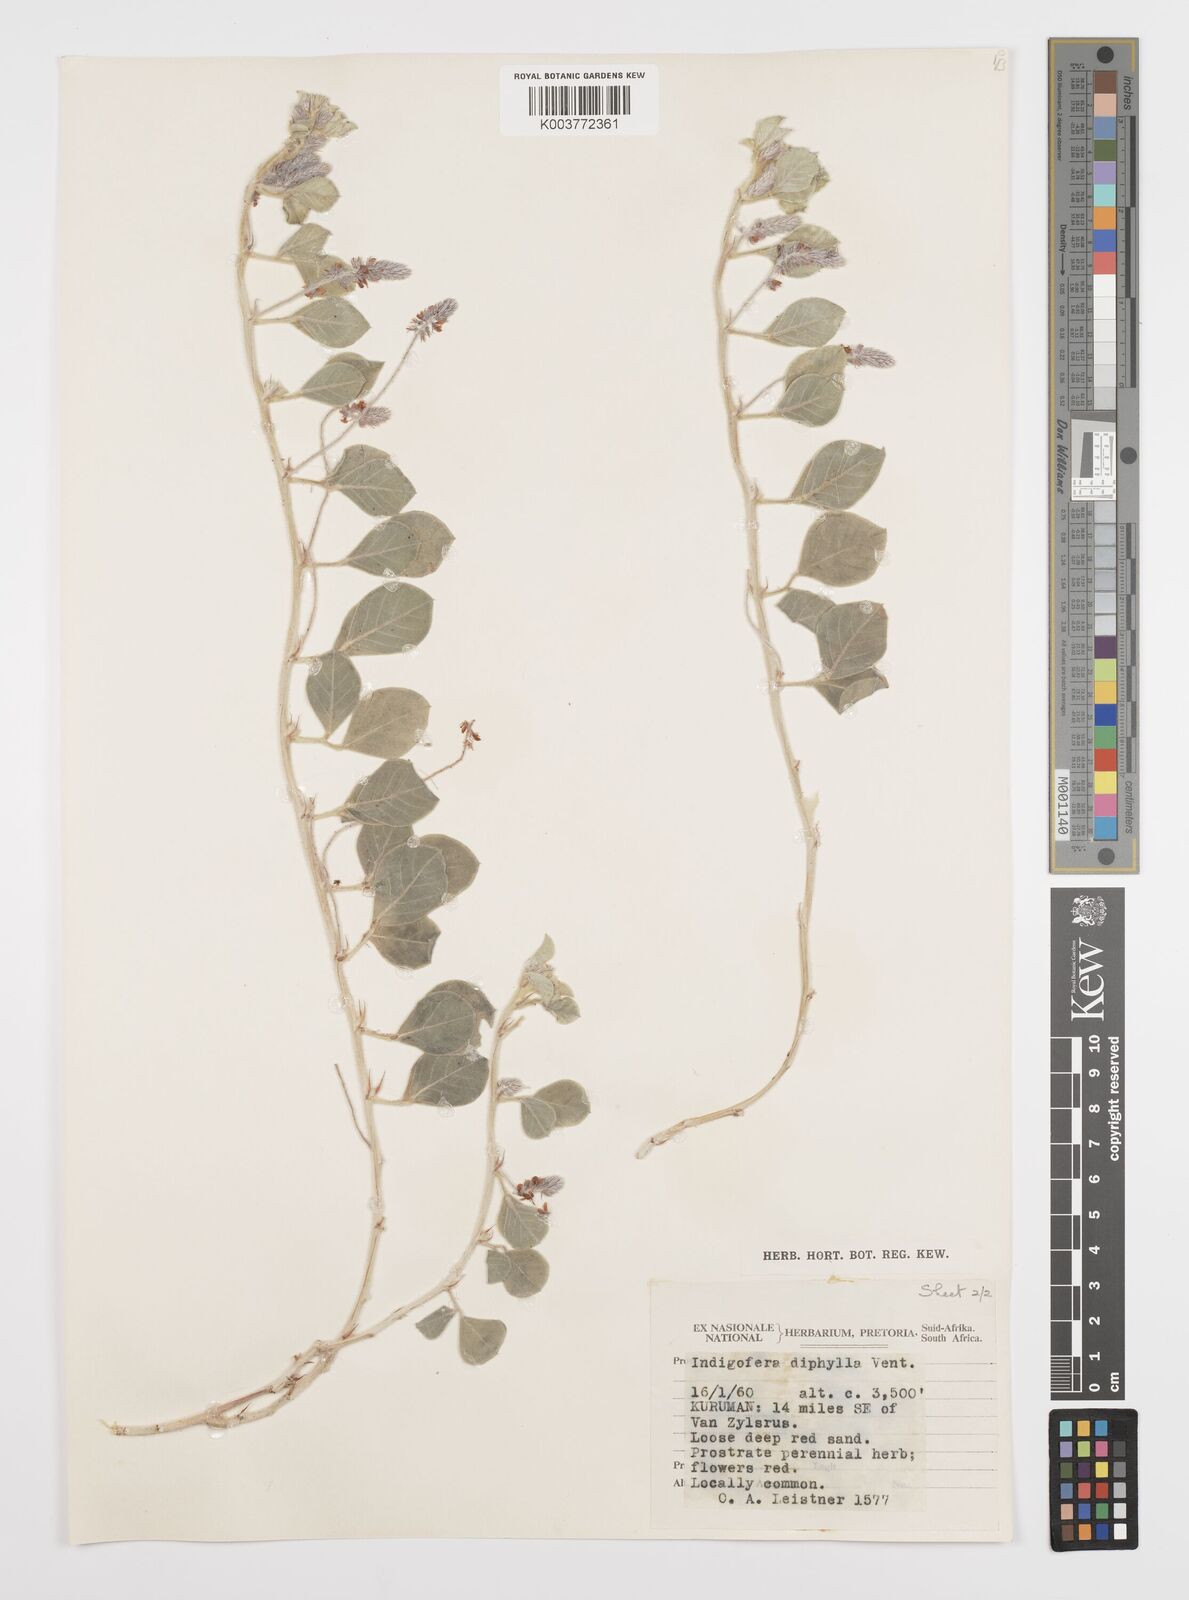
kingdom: Plantae
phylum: Tracheophyta
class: Magnoliopsida
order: Fabales
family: Fabaceae
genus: Indigofera
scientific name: Indigofera flavicans
